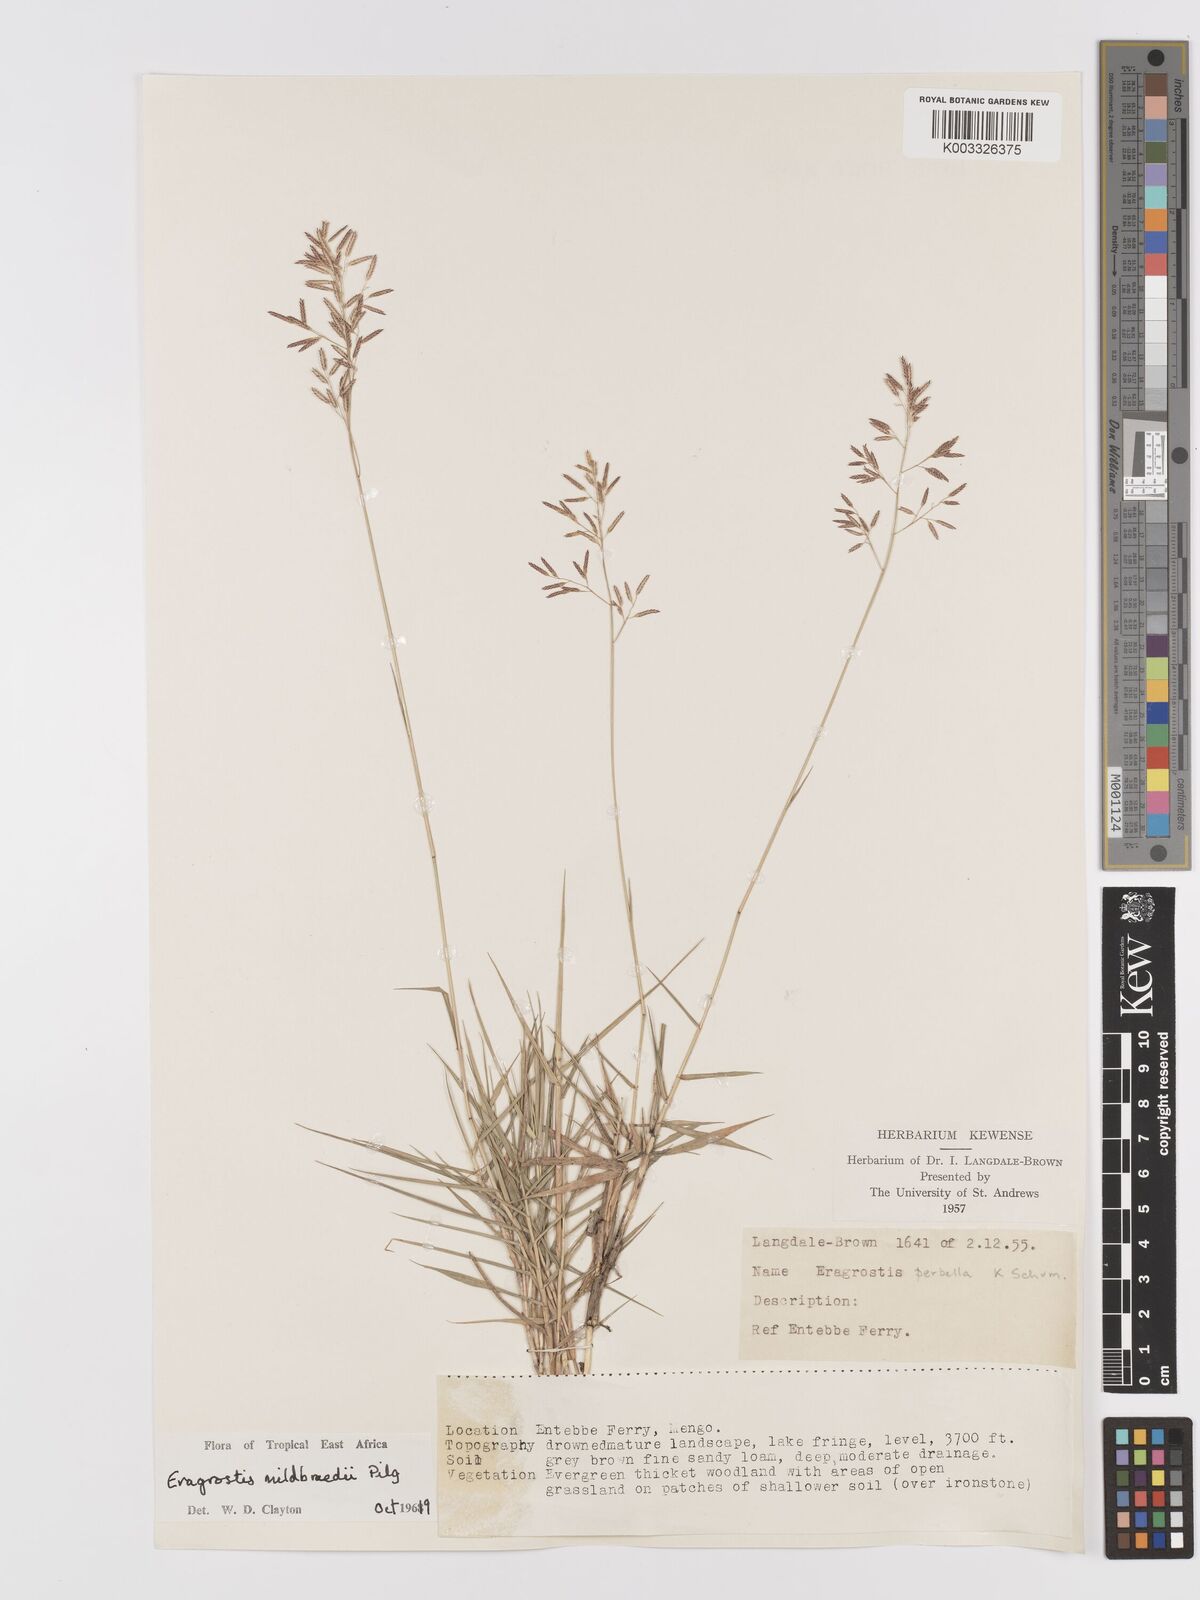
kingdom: Plantae
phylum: Tracheophyta
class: Liliopsida
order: Poales
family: Poaceae
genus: Eragrostis
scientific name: Eragrostis mildbraedii
